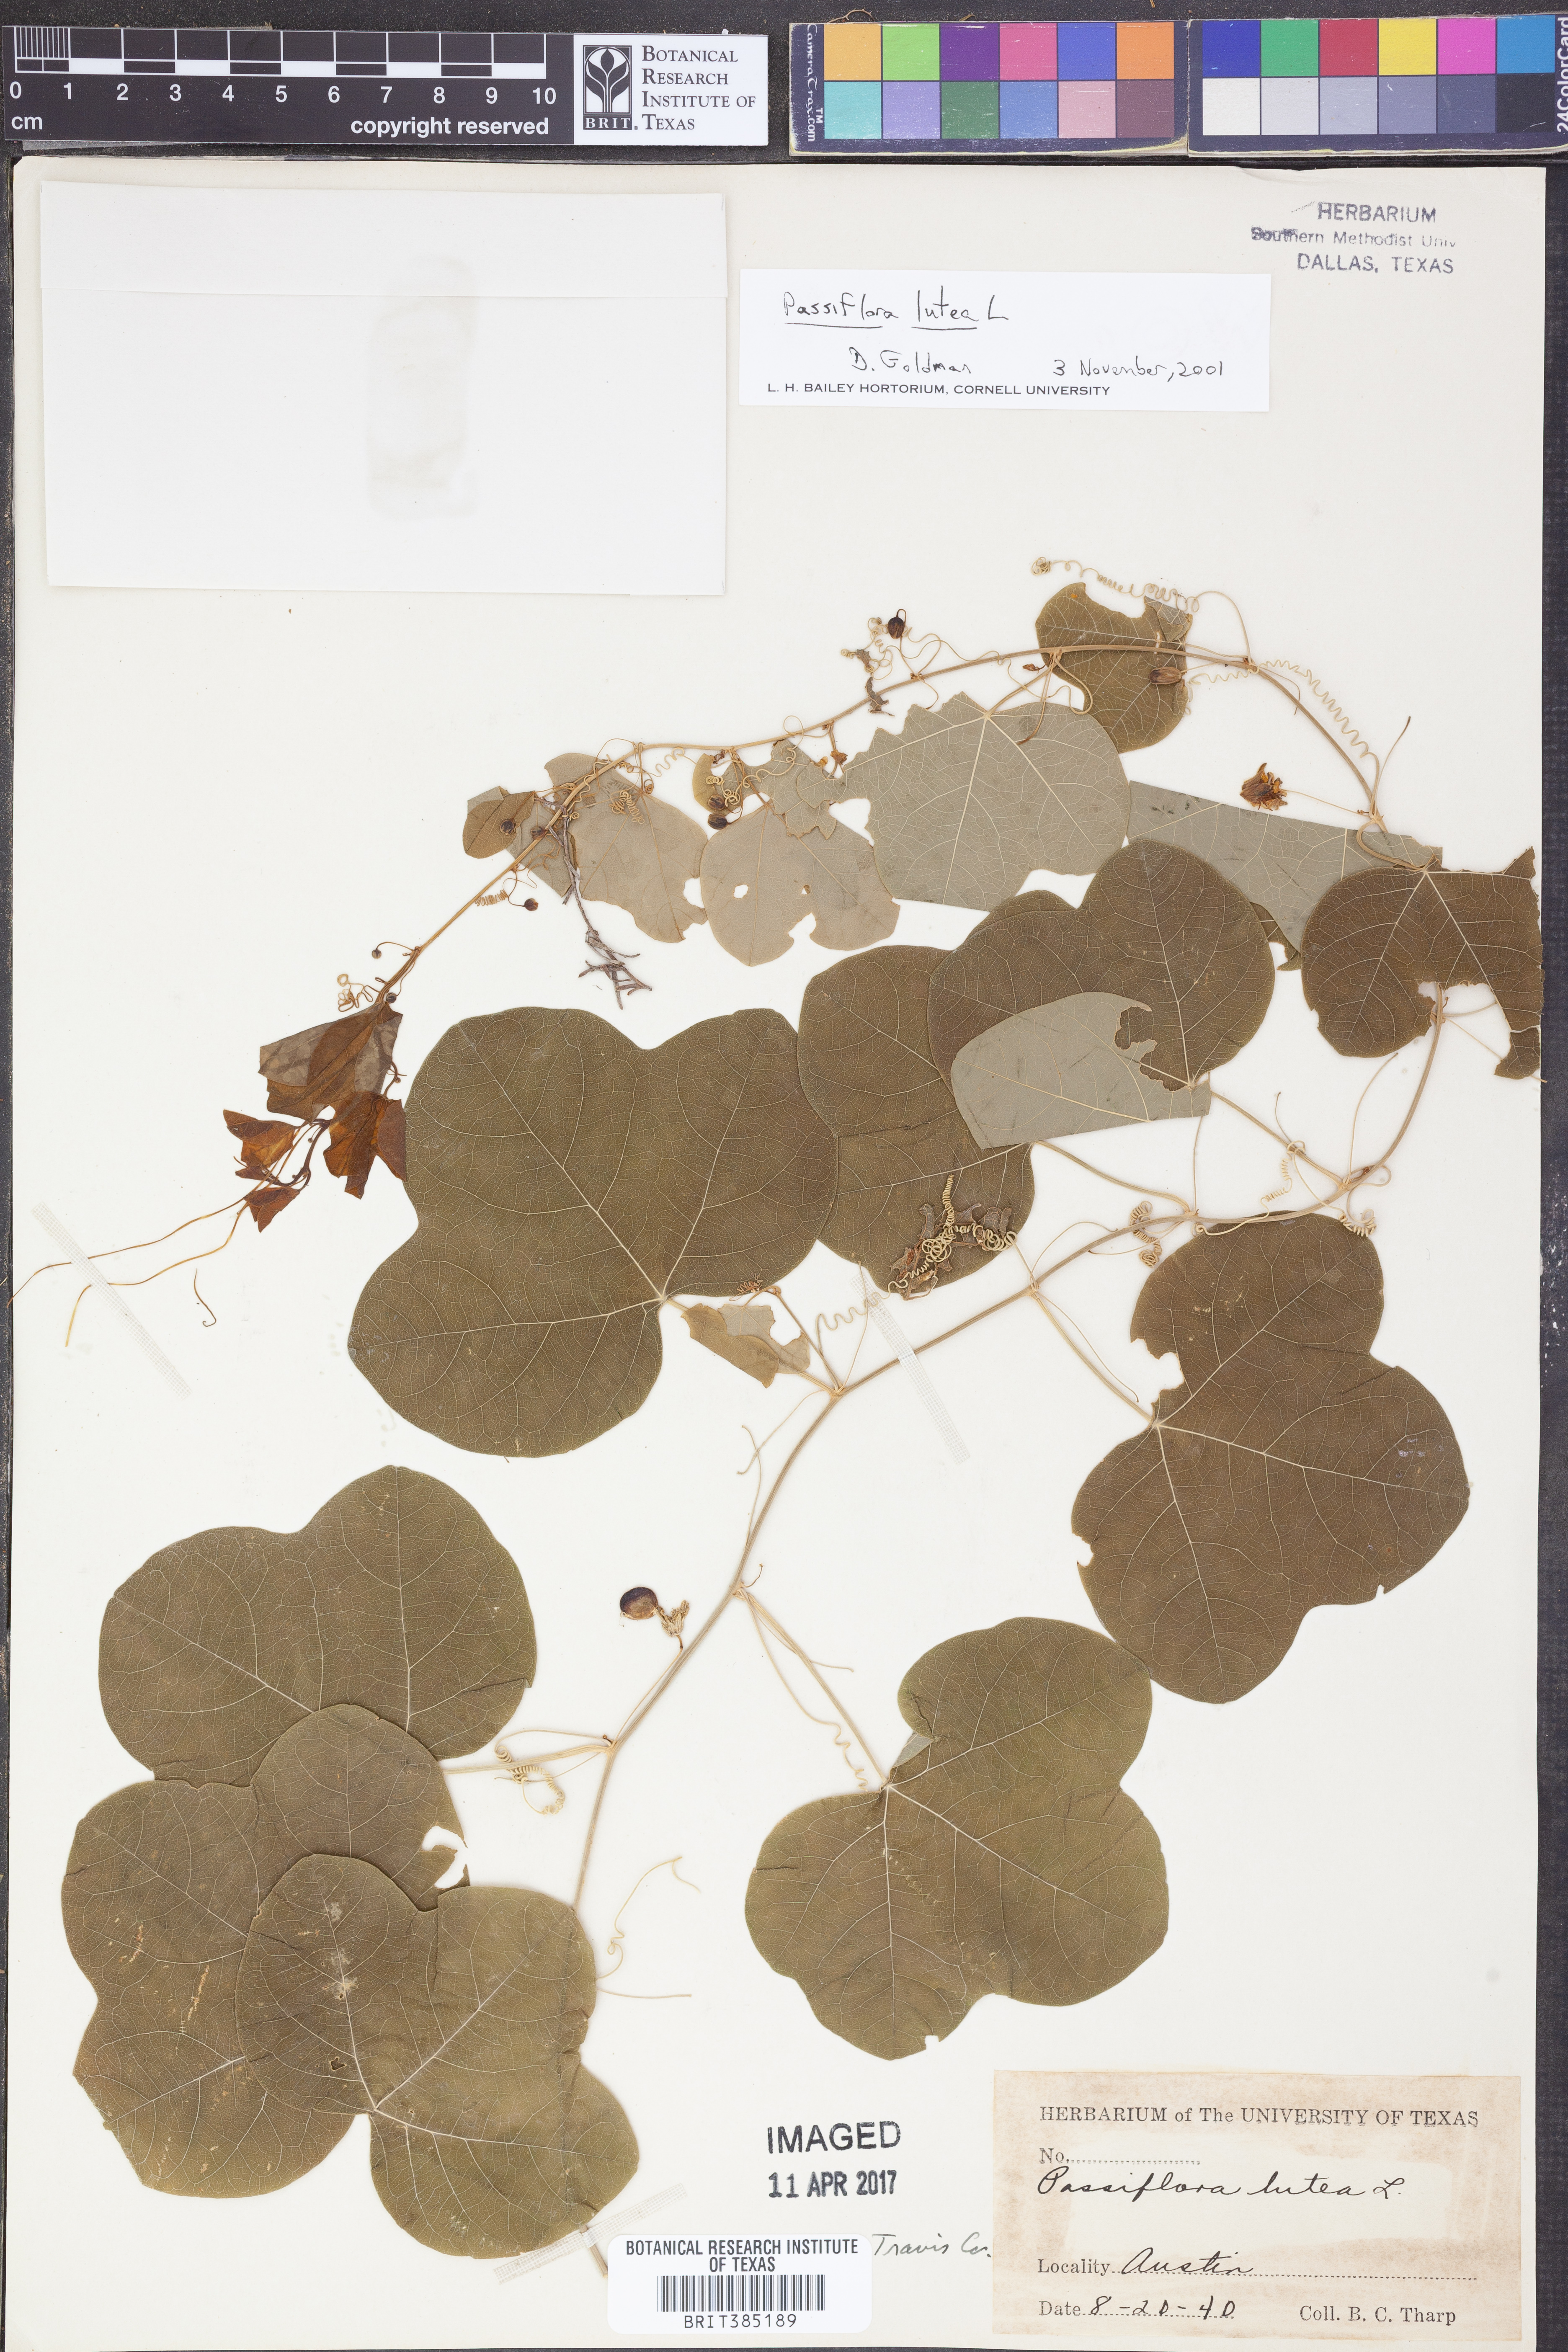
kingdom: Plantae
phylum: Tracheophyta
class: Magnoliopsida
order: Malpighiales
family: Passifloraceae
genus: Passiflora
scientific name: Passiflora lutea
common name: Yellow passionflower
